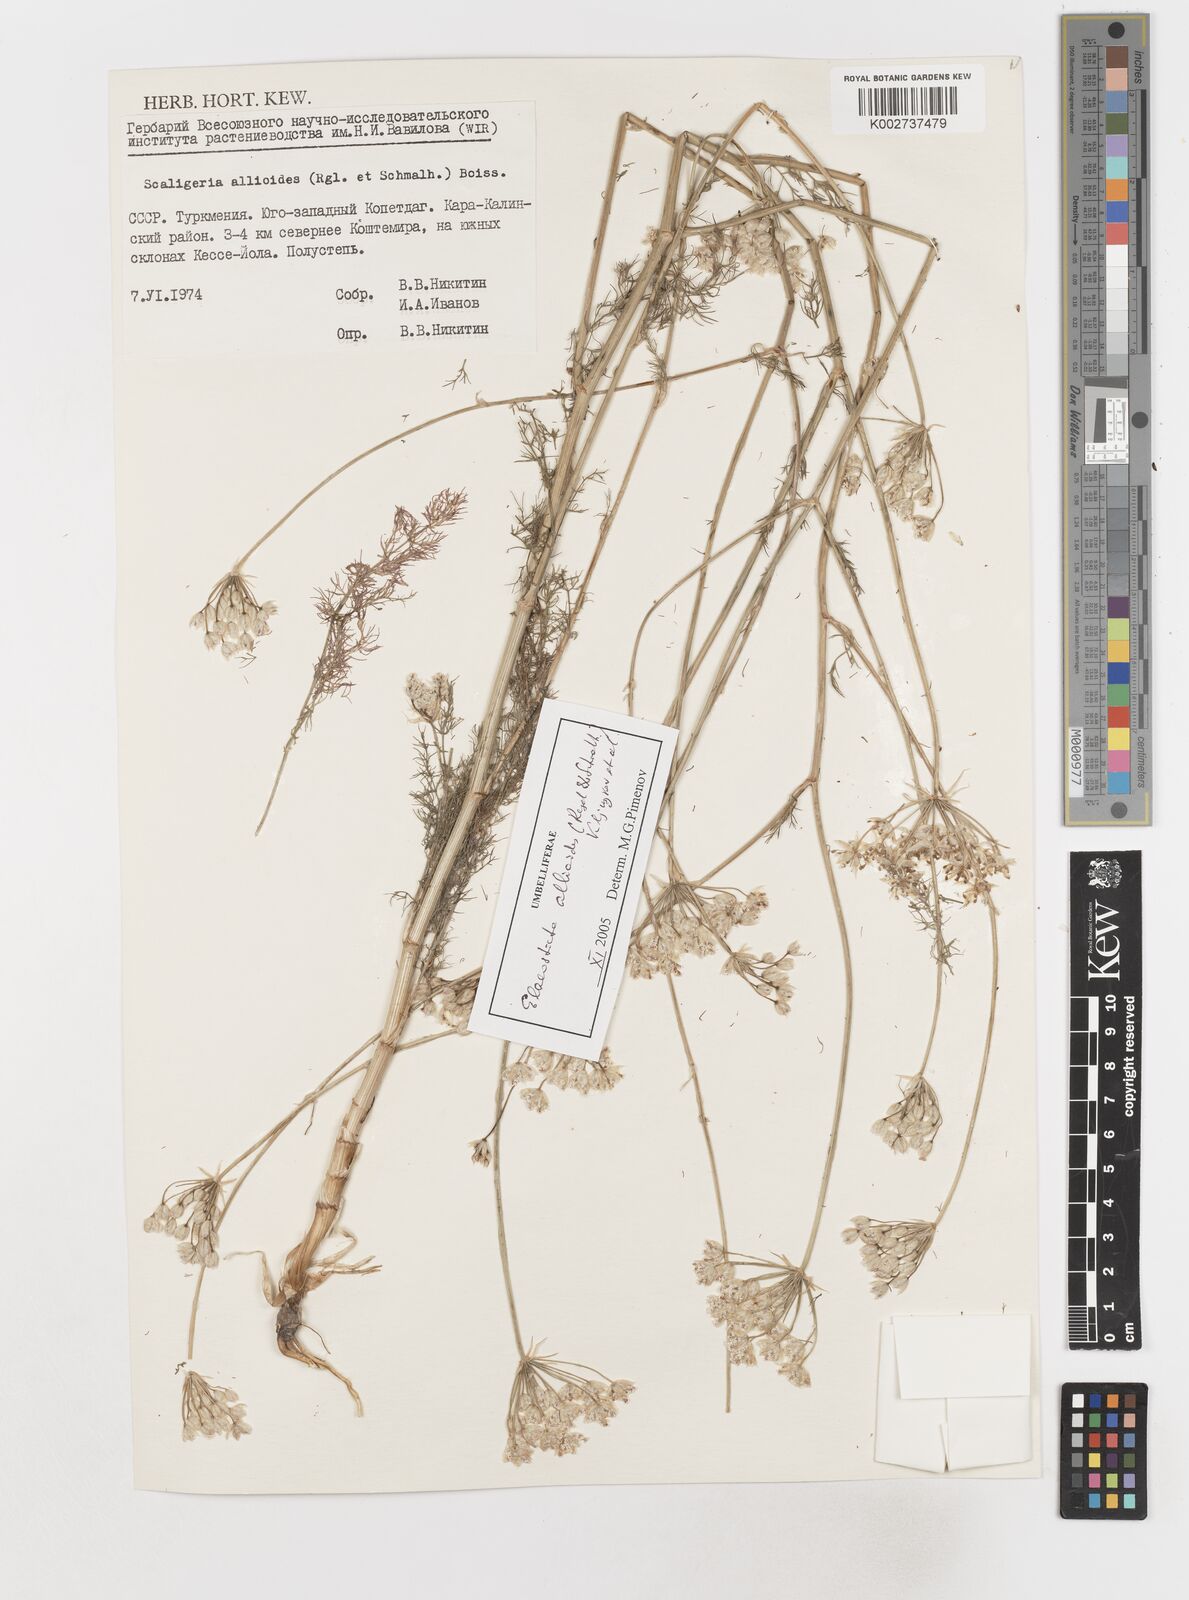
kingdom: Plantae
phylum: Tracheophyta
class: Magnoliopsida
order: Apiales
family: Apiaceae
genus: Scaligeria
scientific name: Scaligeria allioides
